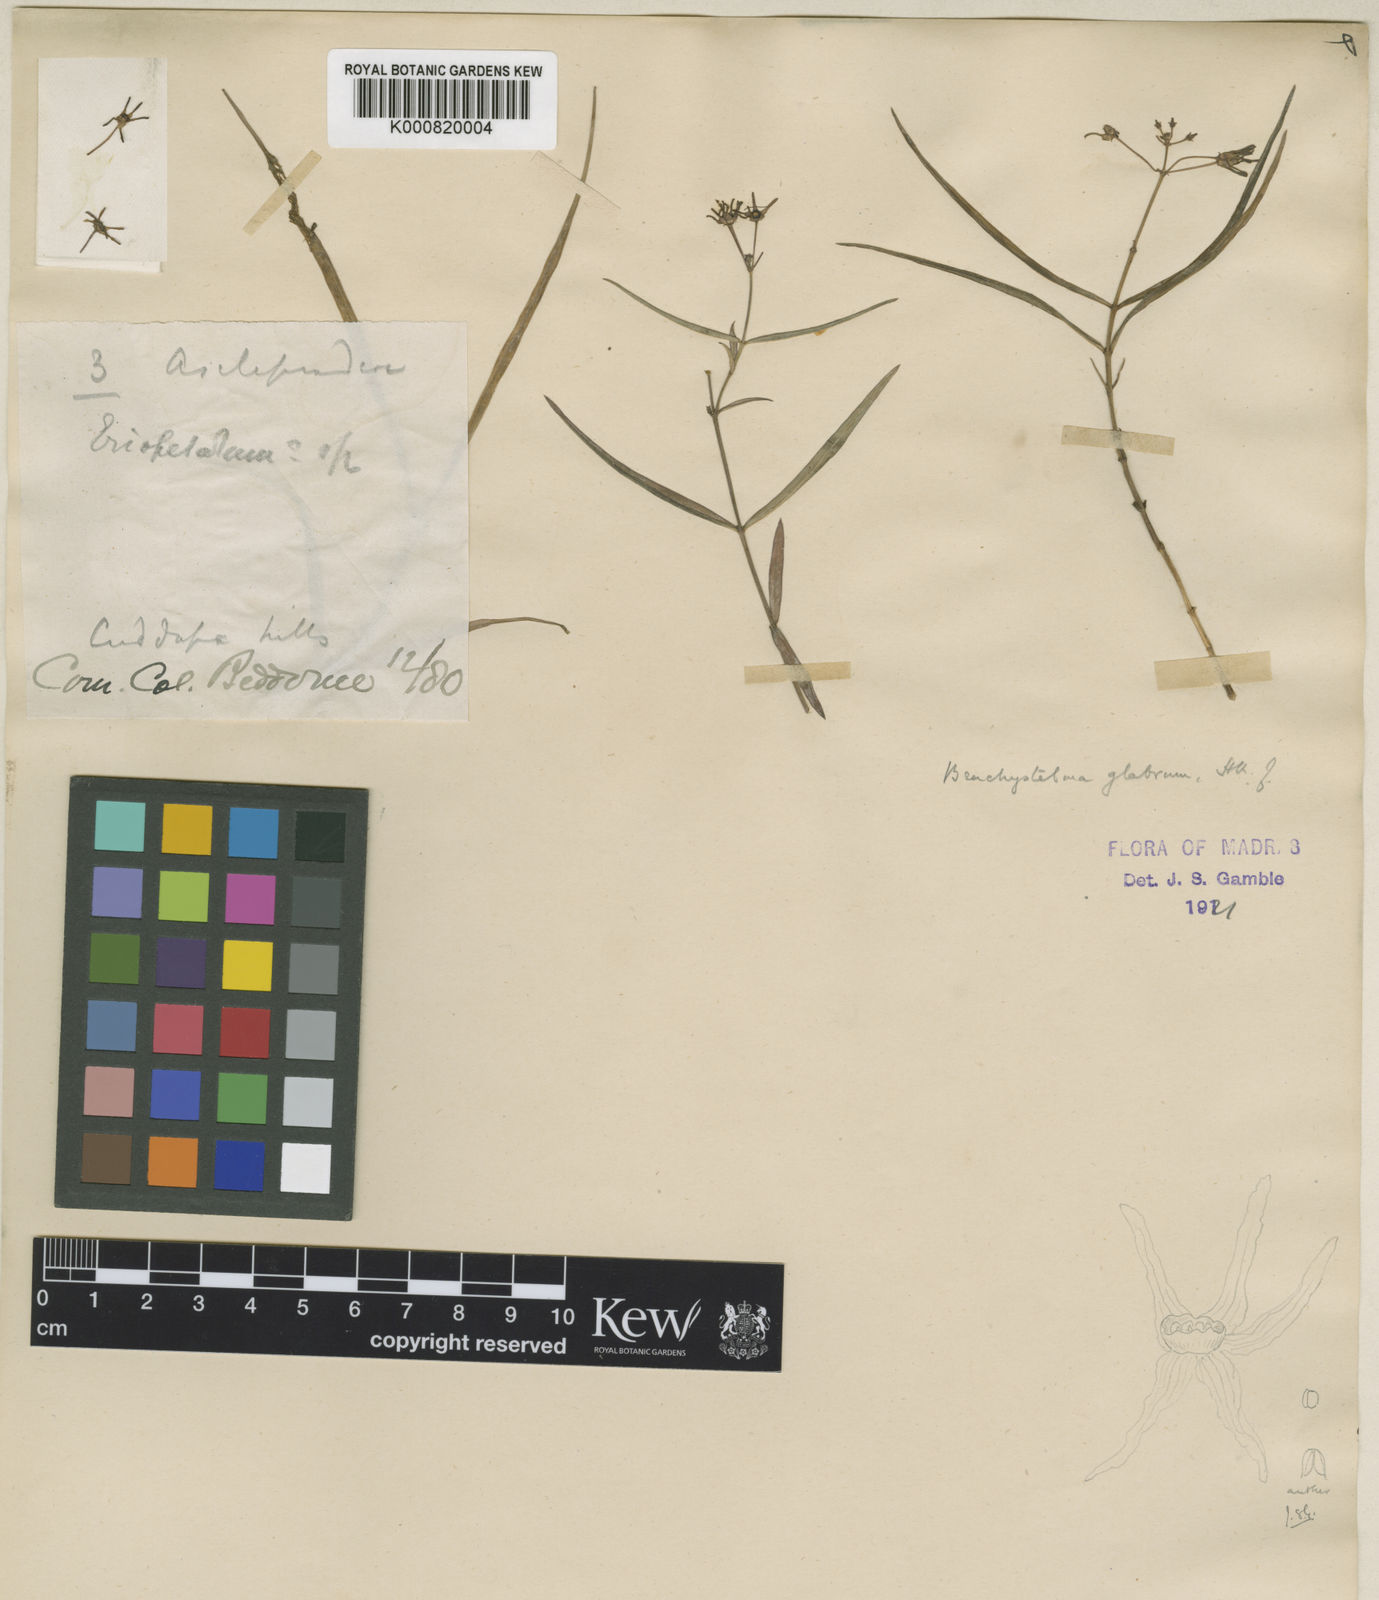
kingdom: Plantae
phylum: Tracheophyta
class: Magnoliopsida
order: Gentianales
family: Apocynaceae
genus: Ceropegia
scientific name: Ceropegia glabra
